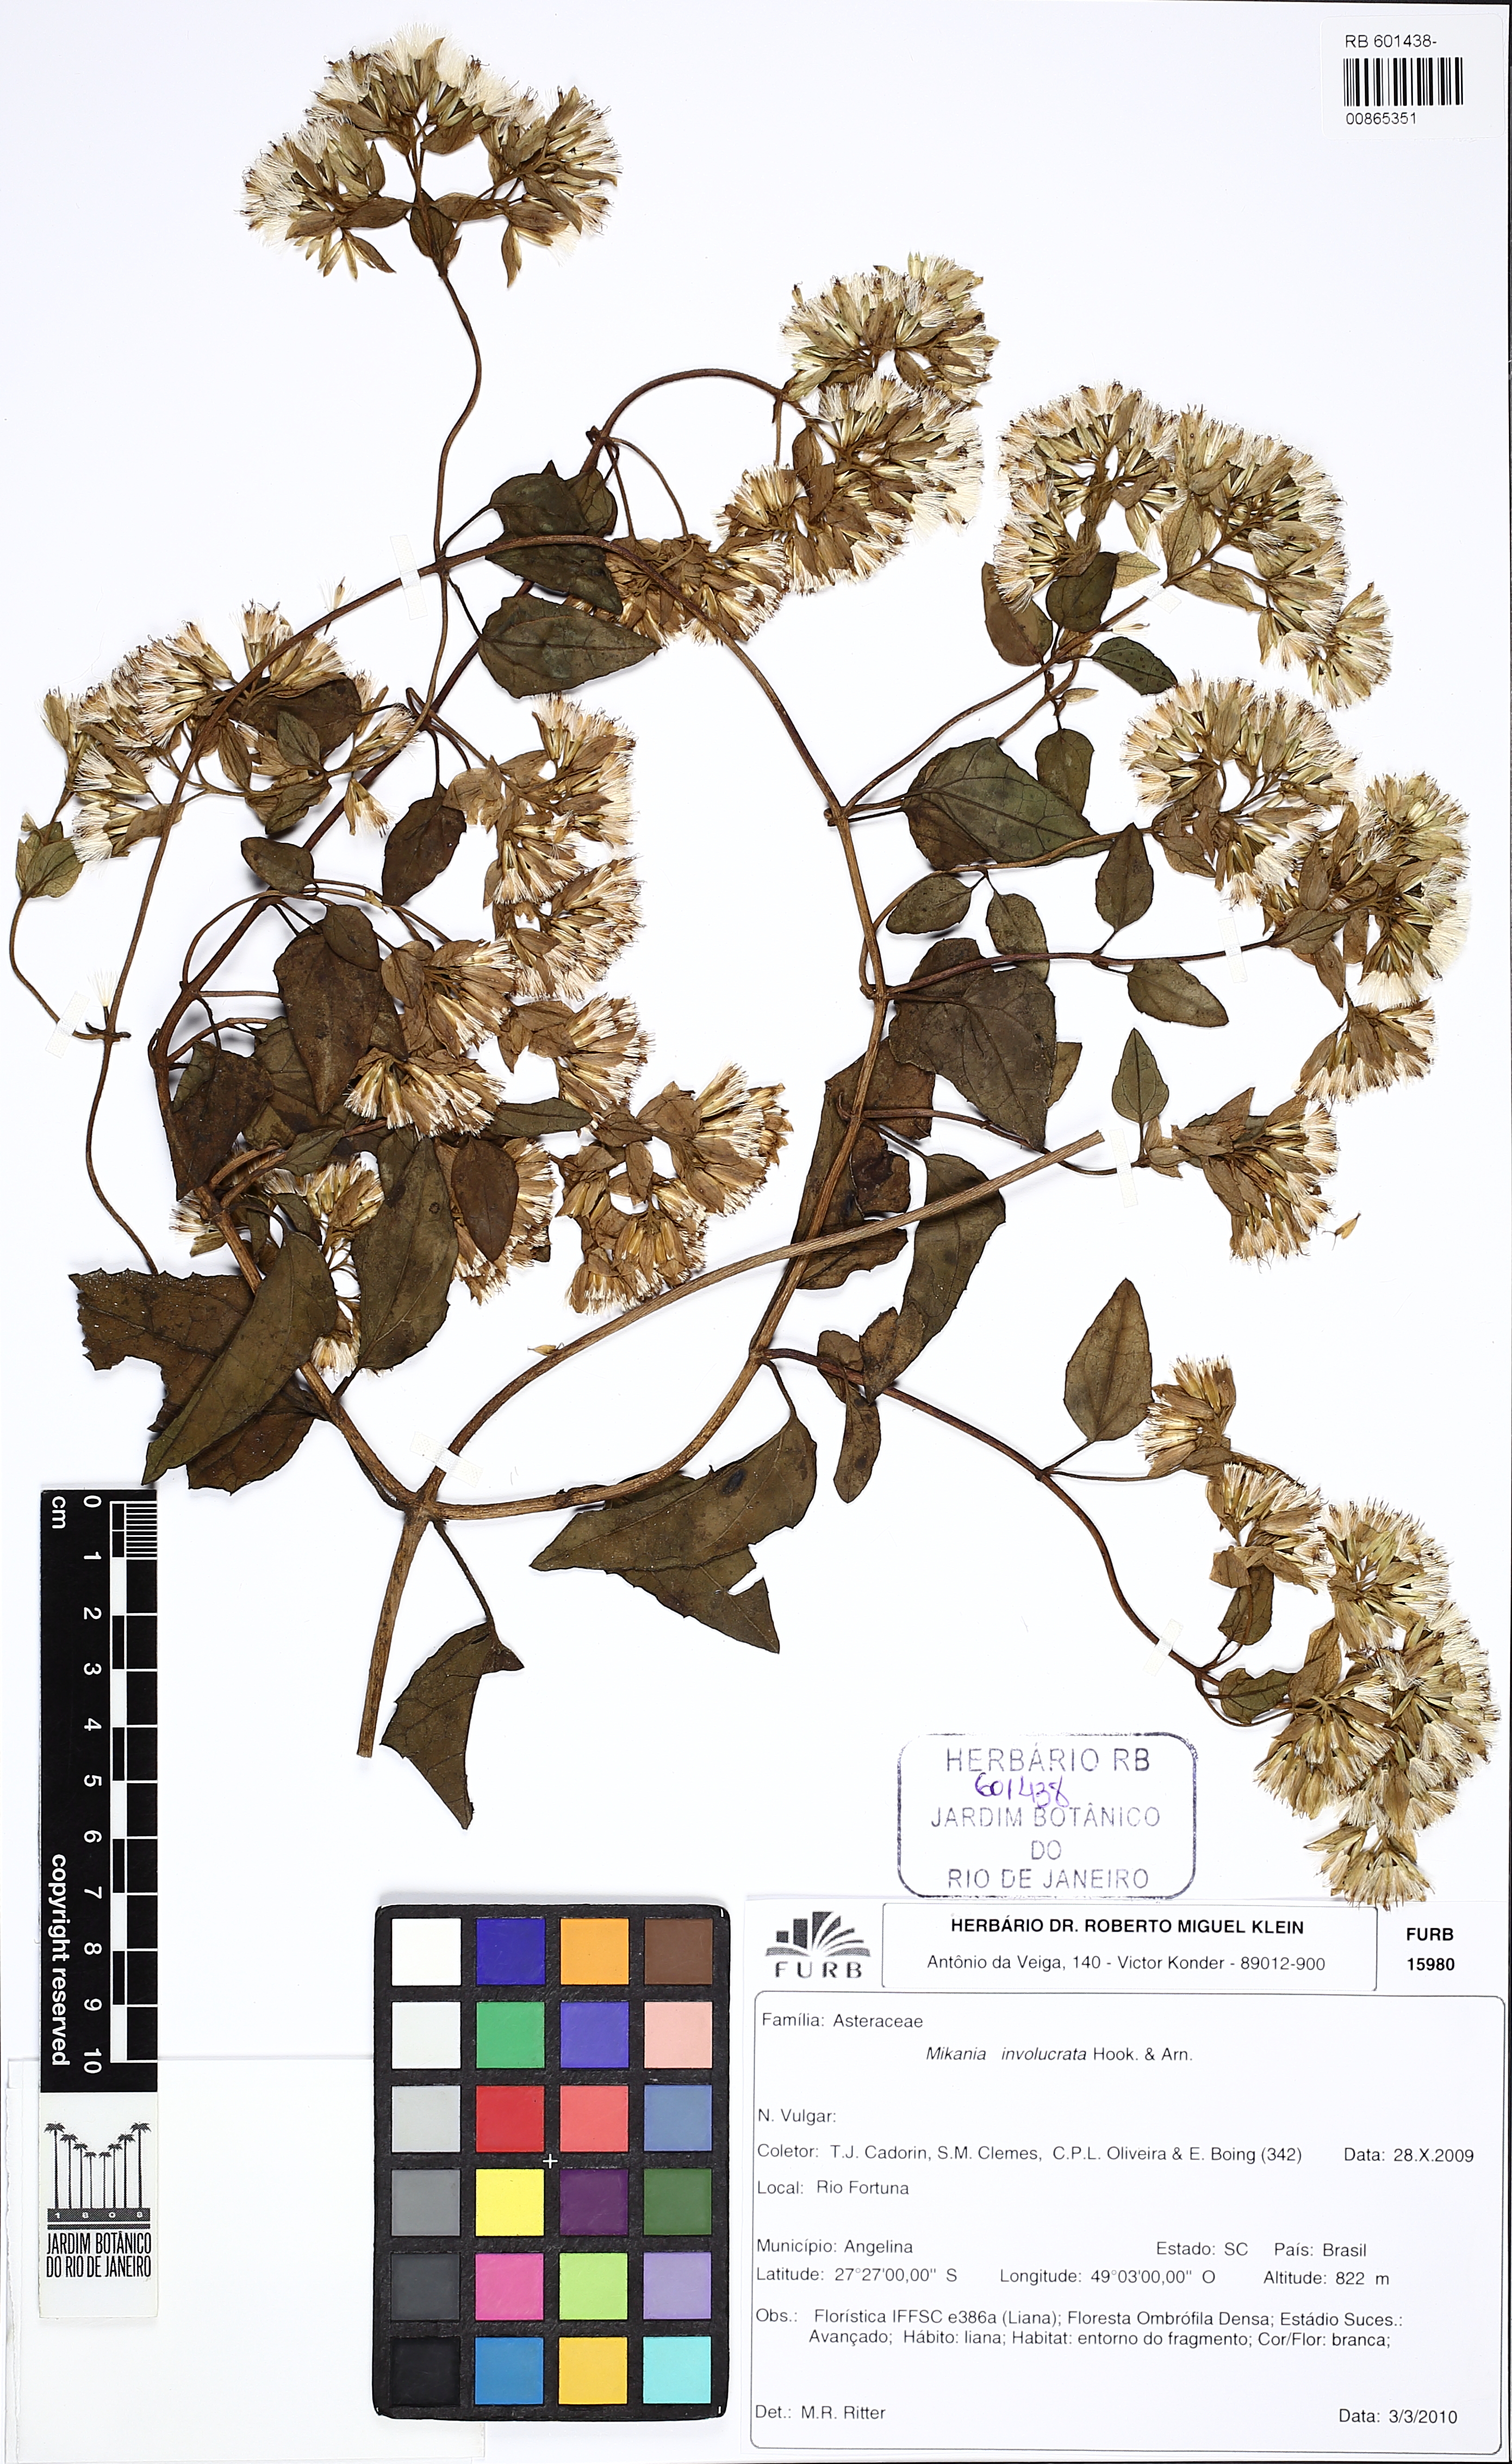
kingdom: Plantae
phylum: Tracheophyta
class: Magnoliopsida
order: Asterales
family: Asteraceae
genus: Mikania
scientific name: Mikania involucrata
